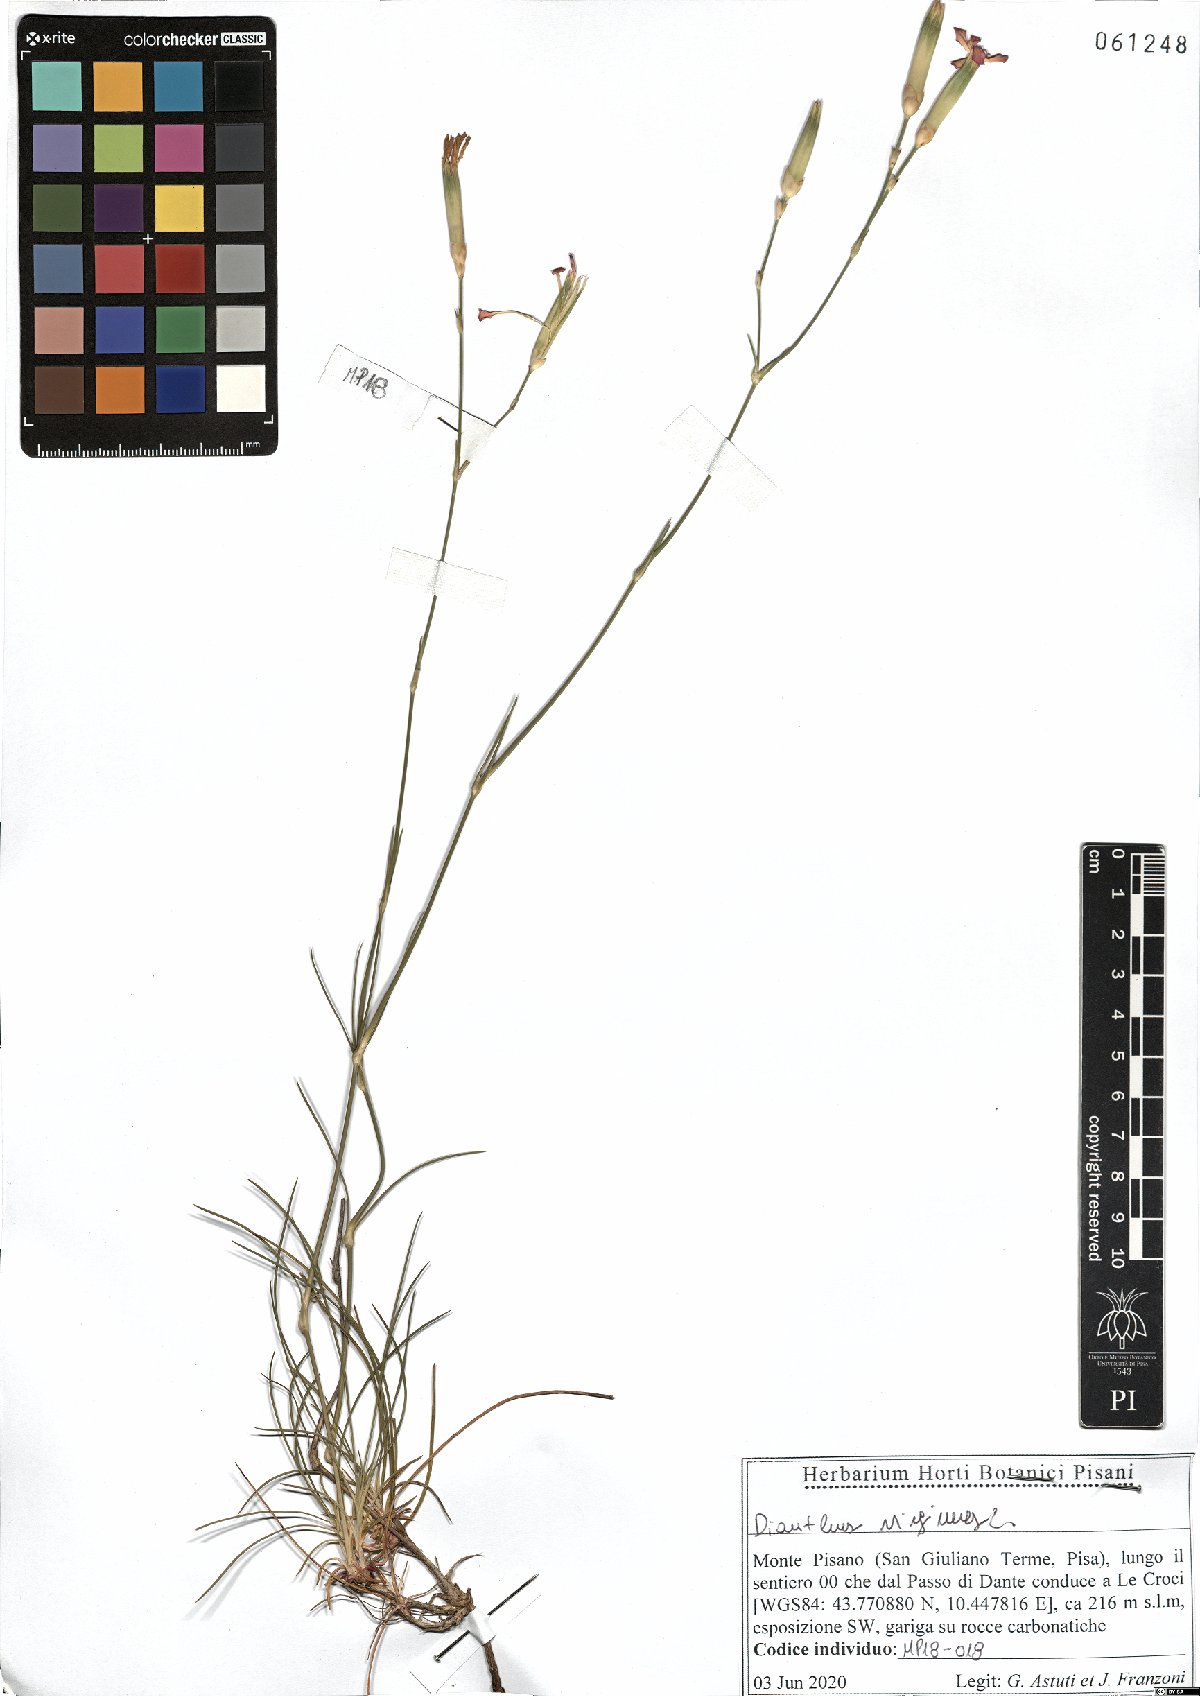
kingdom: Plantae
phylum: Tracheophyta
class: Magnoliopsida
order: Caryophyllales
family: Caryophyllaceae
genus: Dianthus
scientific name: Dianthus virgineus
